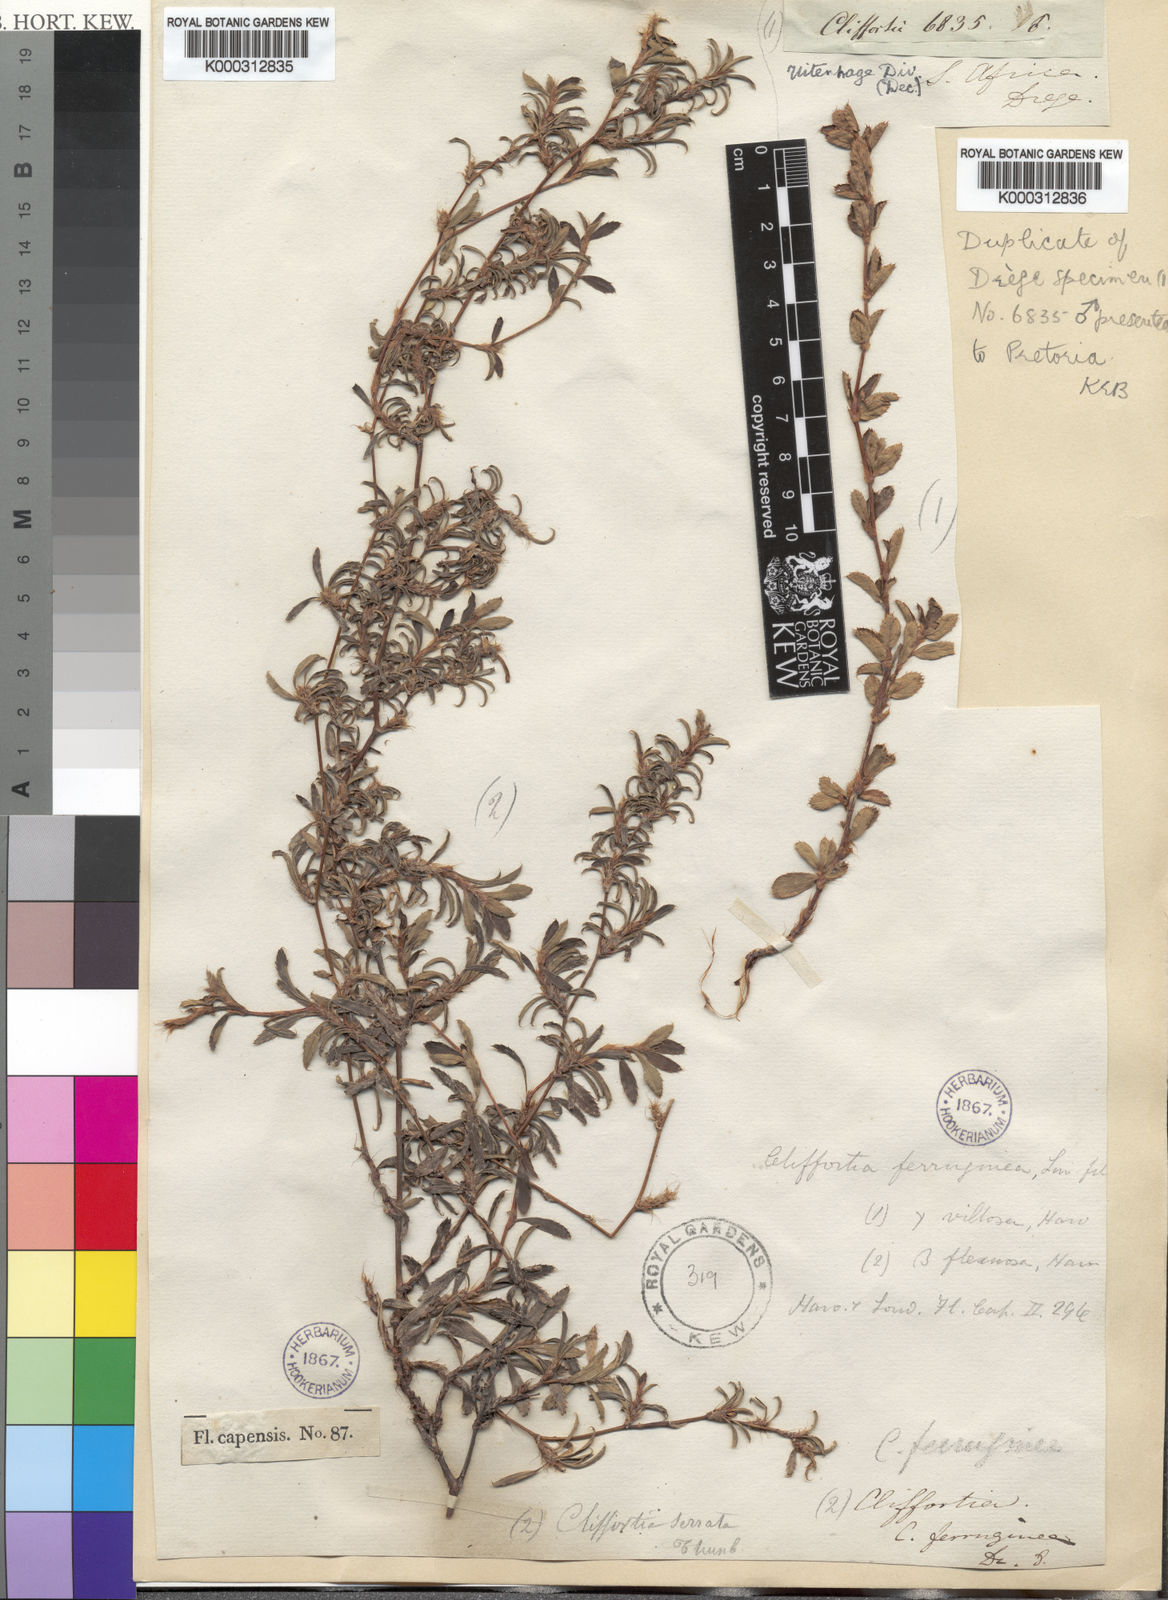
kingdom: Plantae
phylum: Tracheophyta
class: Magnoliopsida
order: Rosales
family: Rosaceae
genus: Cliffortia
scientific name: Cliffortia
